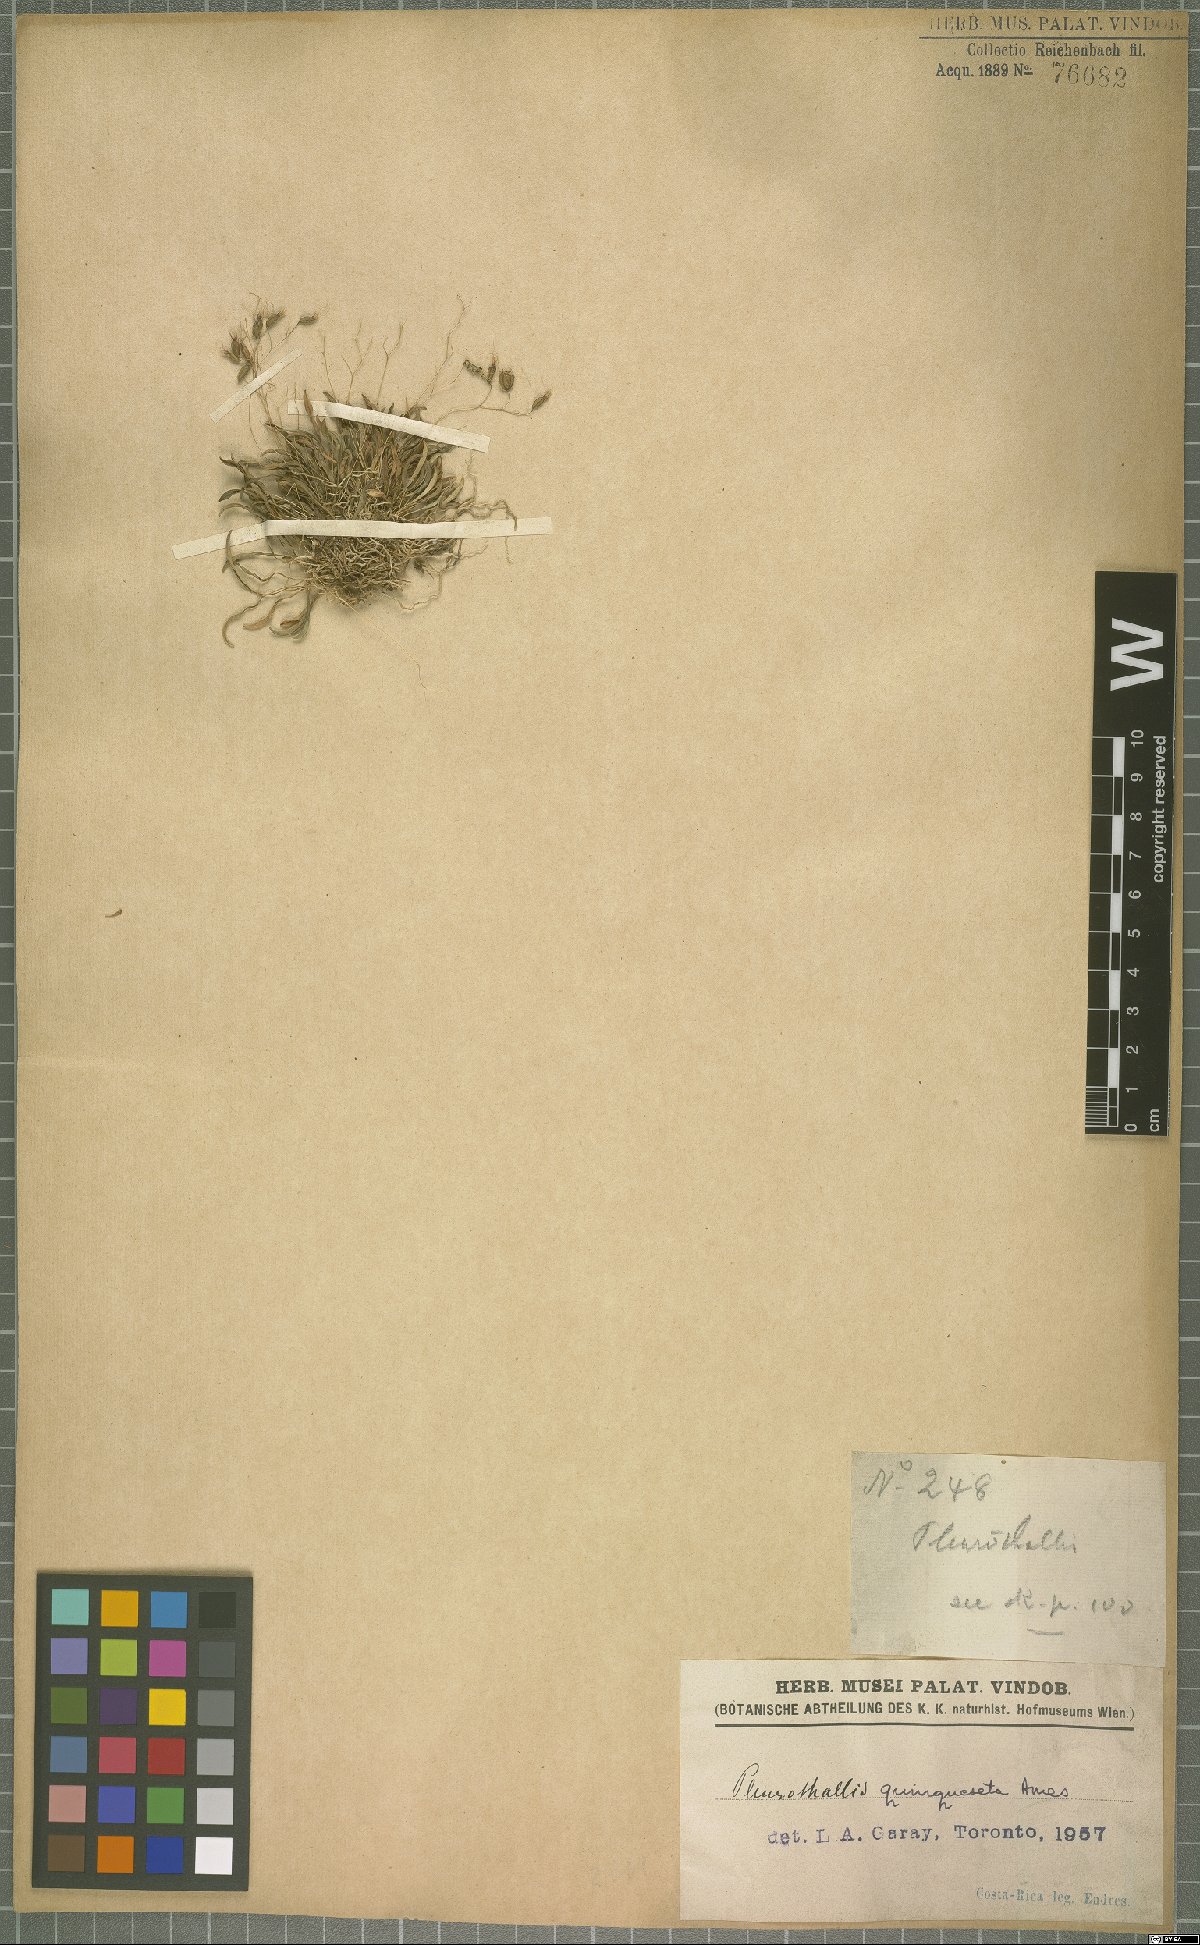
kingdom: Plantae
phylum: Tracheophyta
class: Liliopsida
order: Asparagales
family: Orchidaceae
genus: Muscarella
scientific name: Muscarella quinqueseta
